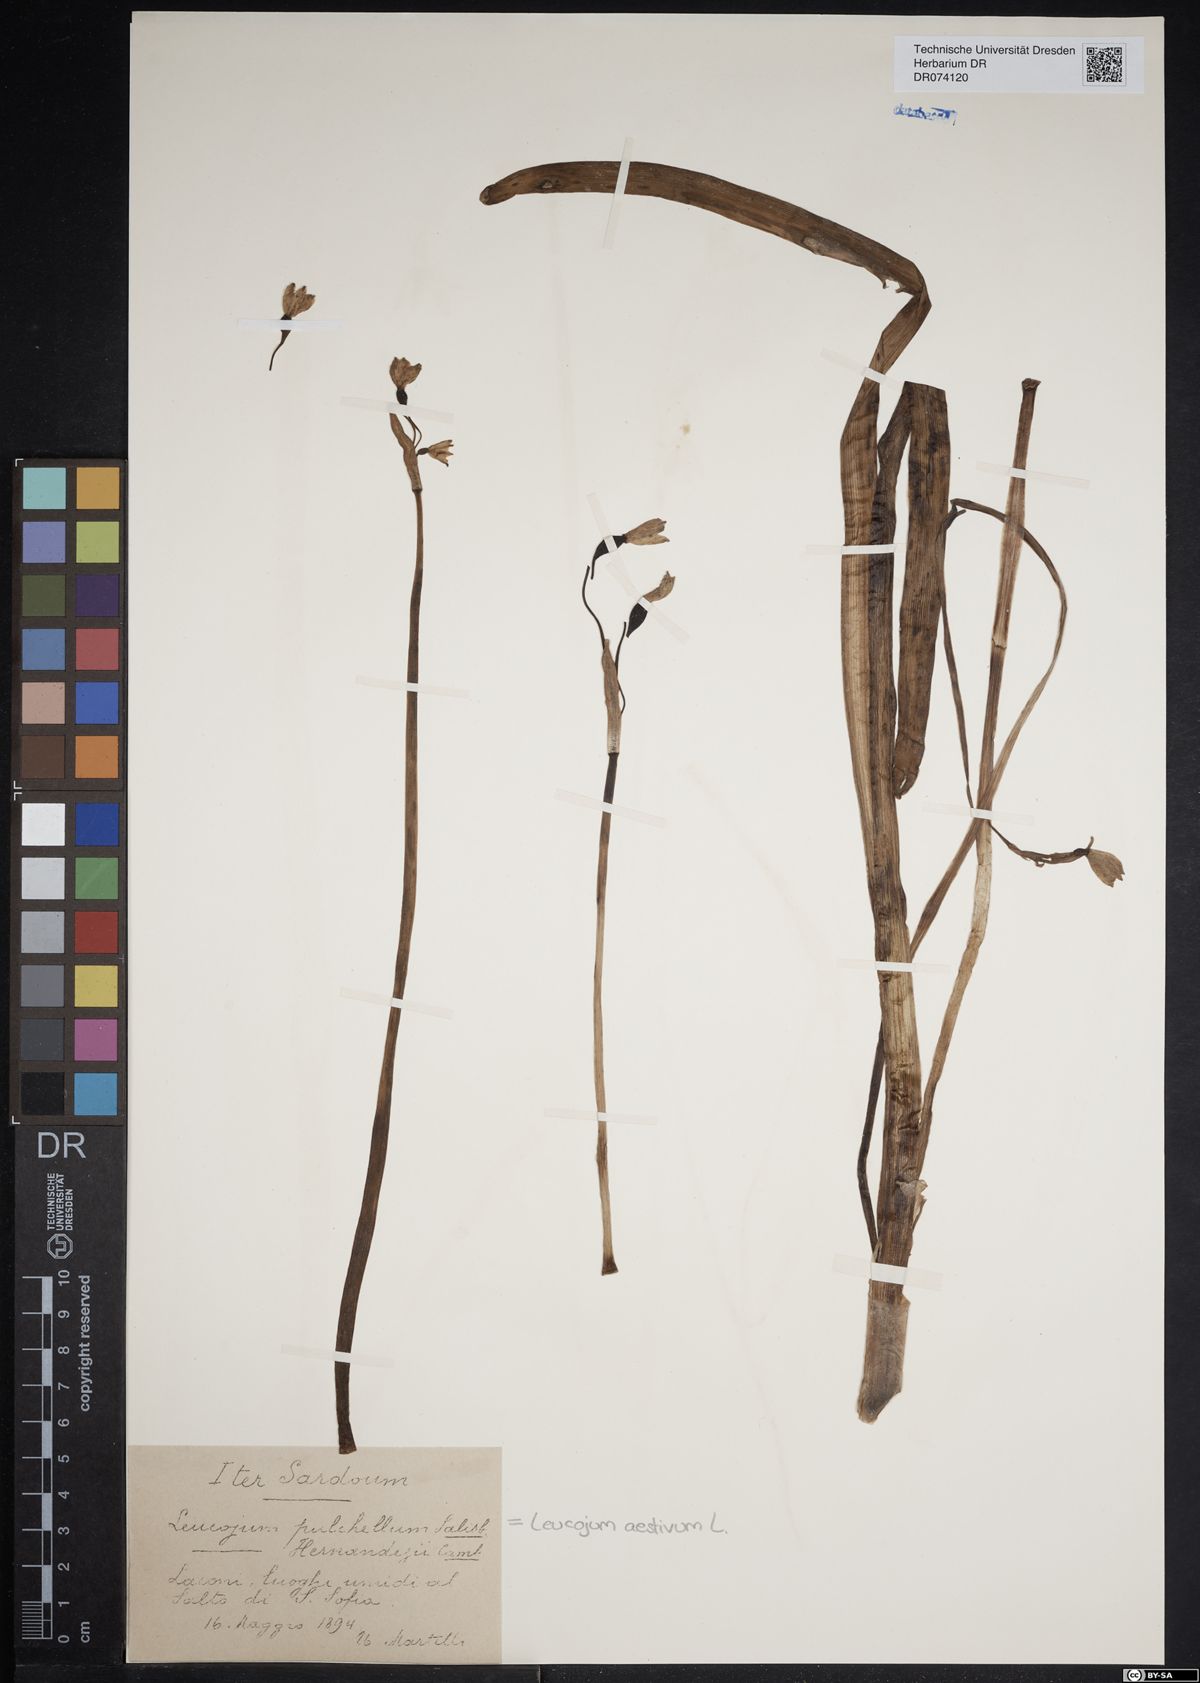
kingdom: Plantae
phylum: Tracheophyta
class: Liliopsida
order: Asparagales
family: Amaryllidaceae
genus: Leucojum
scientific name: Leucojum aestivum
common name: Summer snowflake
